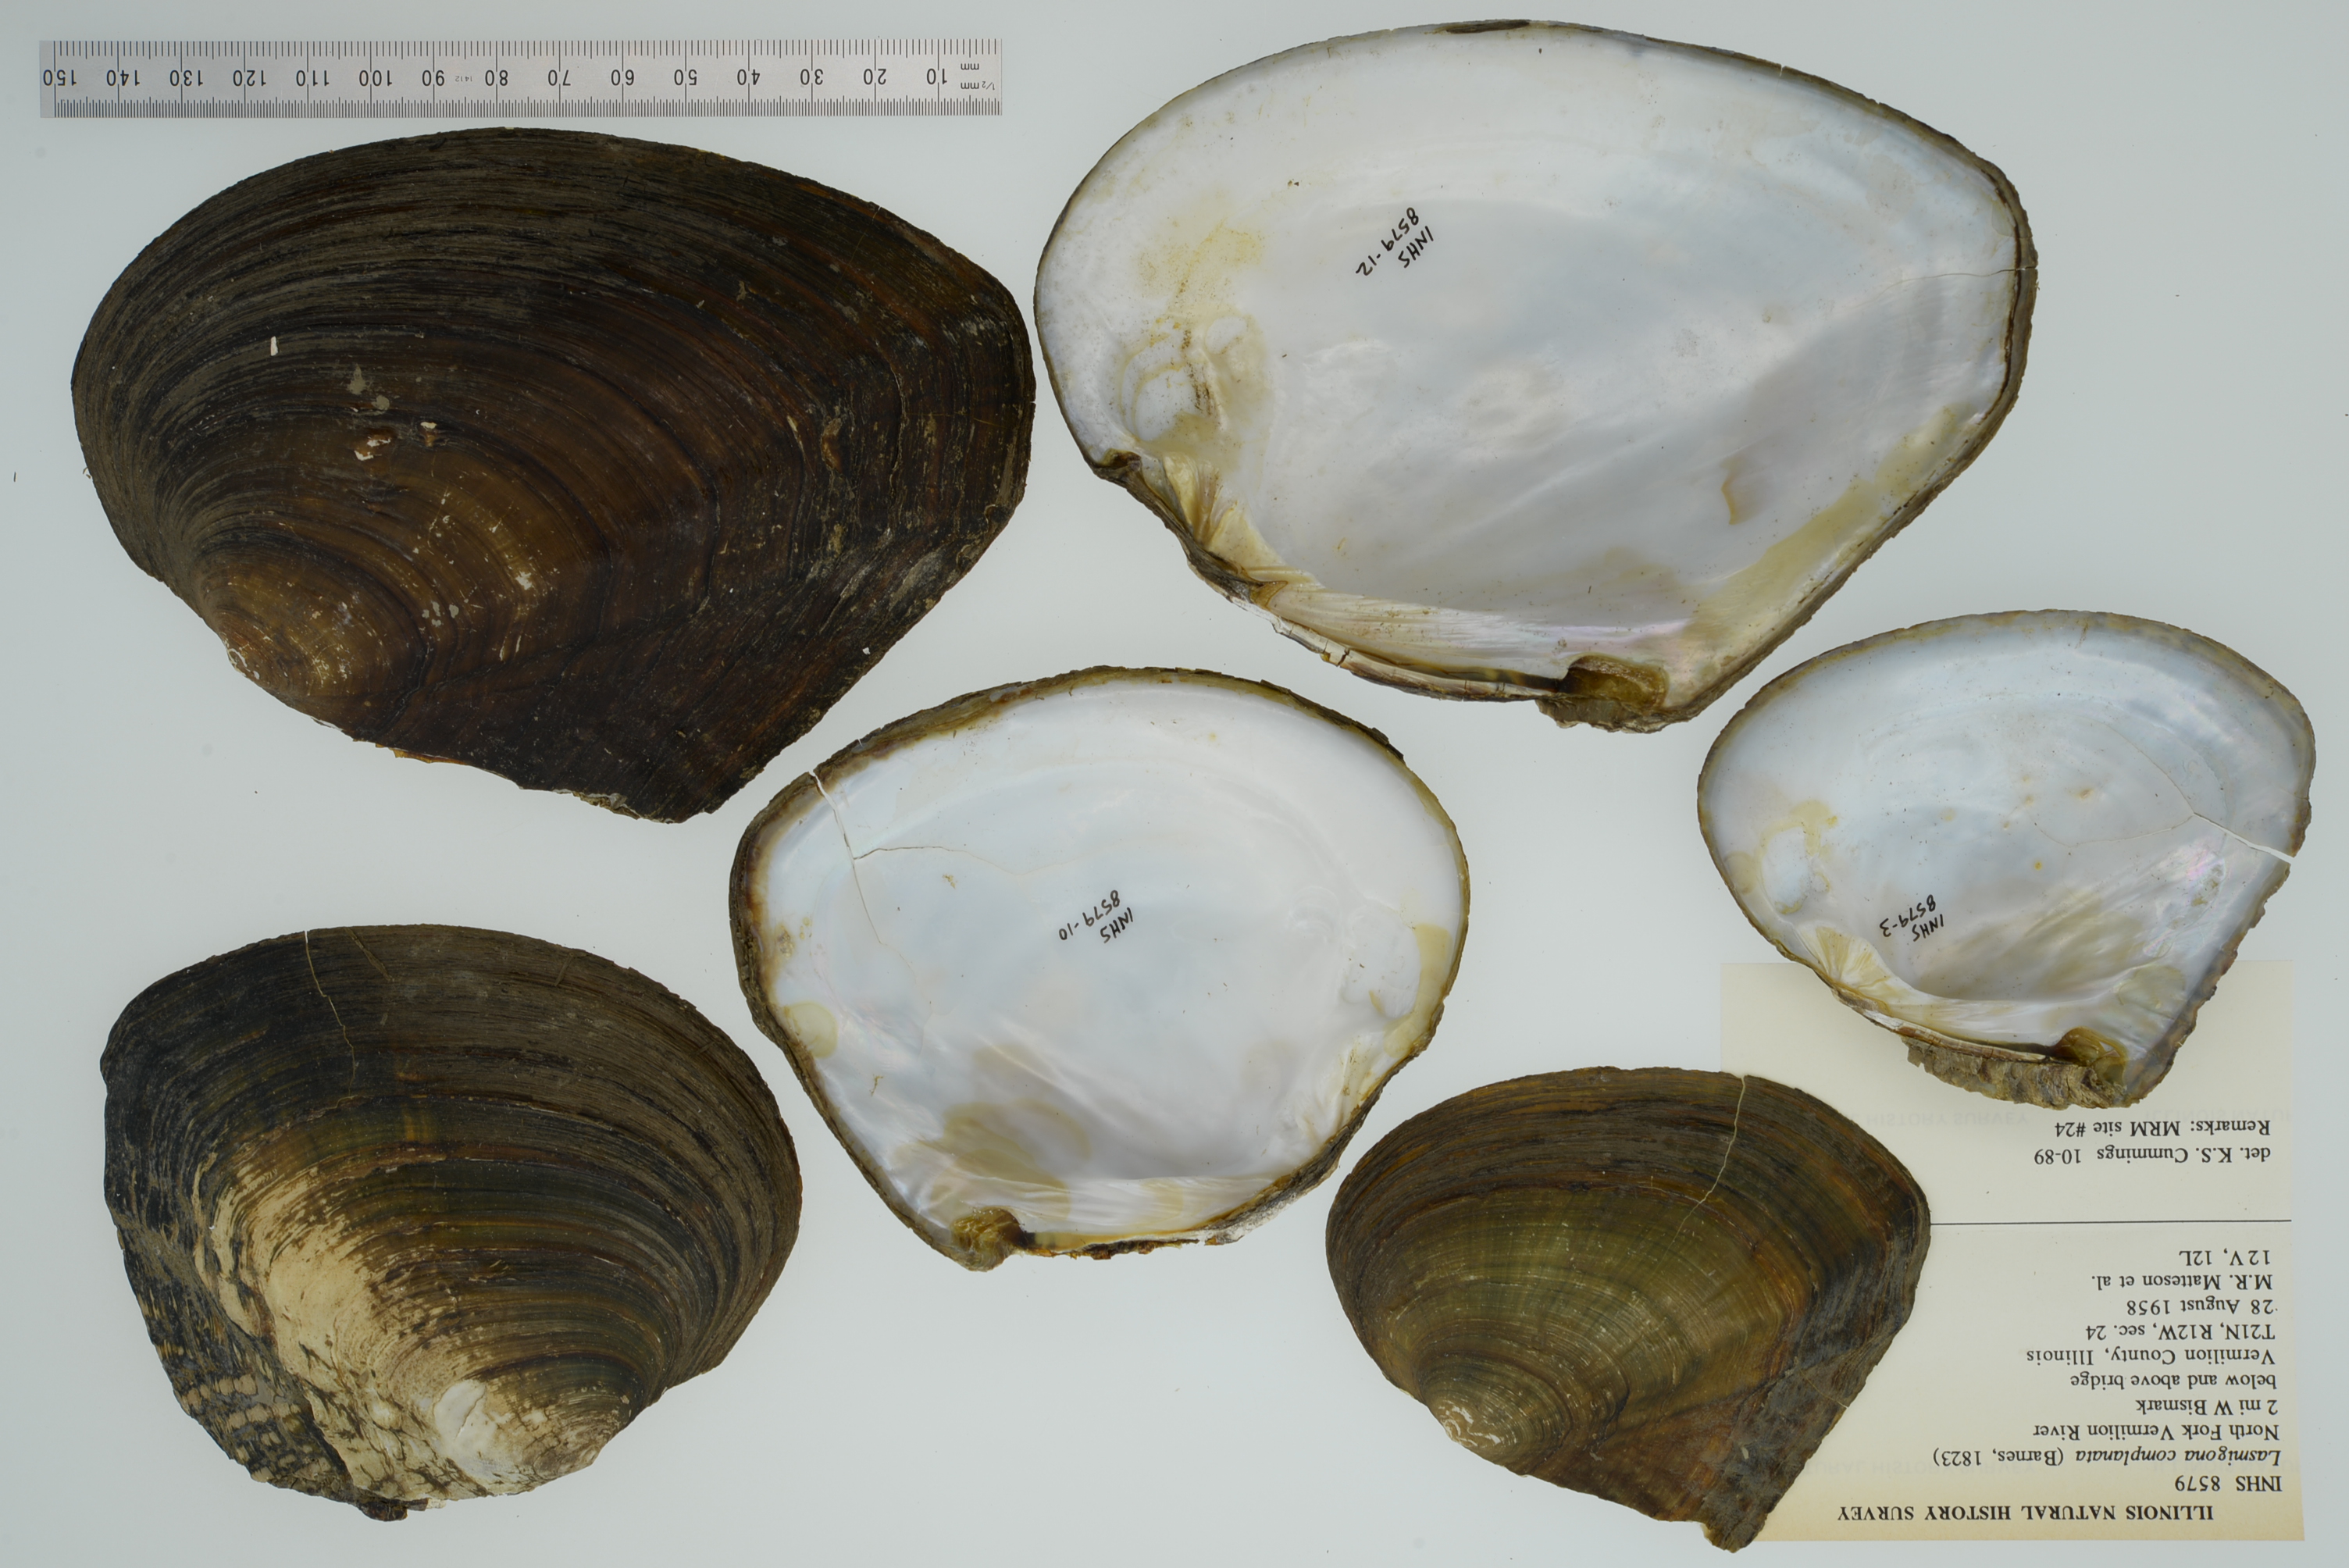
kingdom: Animalia
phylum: Mollusca
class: Bivalvia
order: Unionida
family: Unionidae
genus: Lasmigona
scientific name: Lasmigona complanata
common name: White heelsplitter
